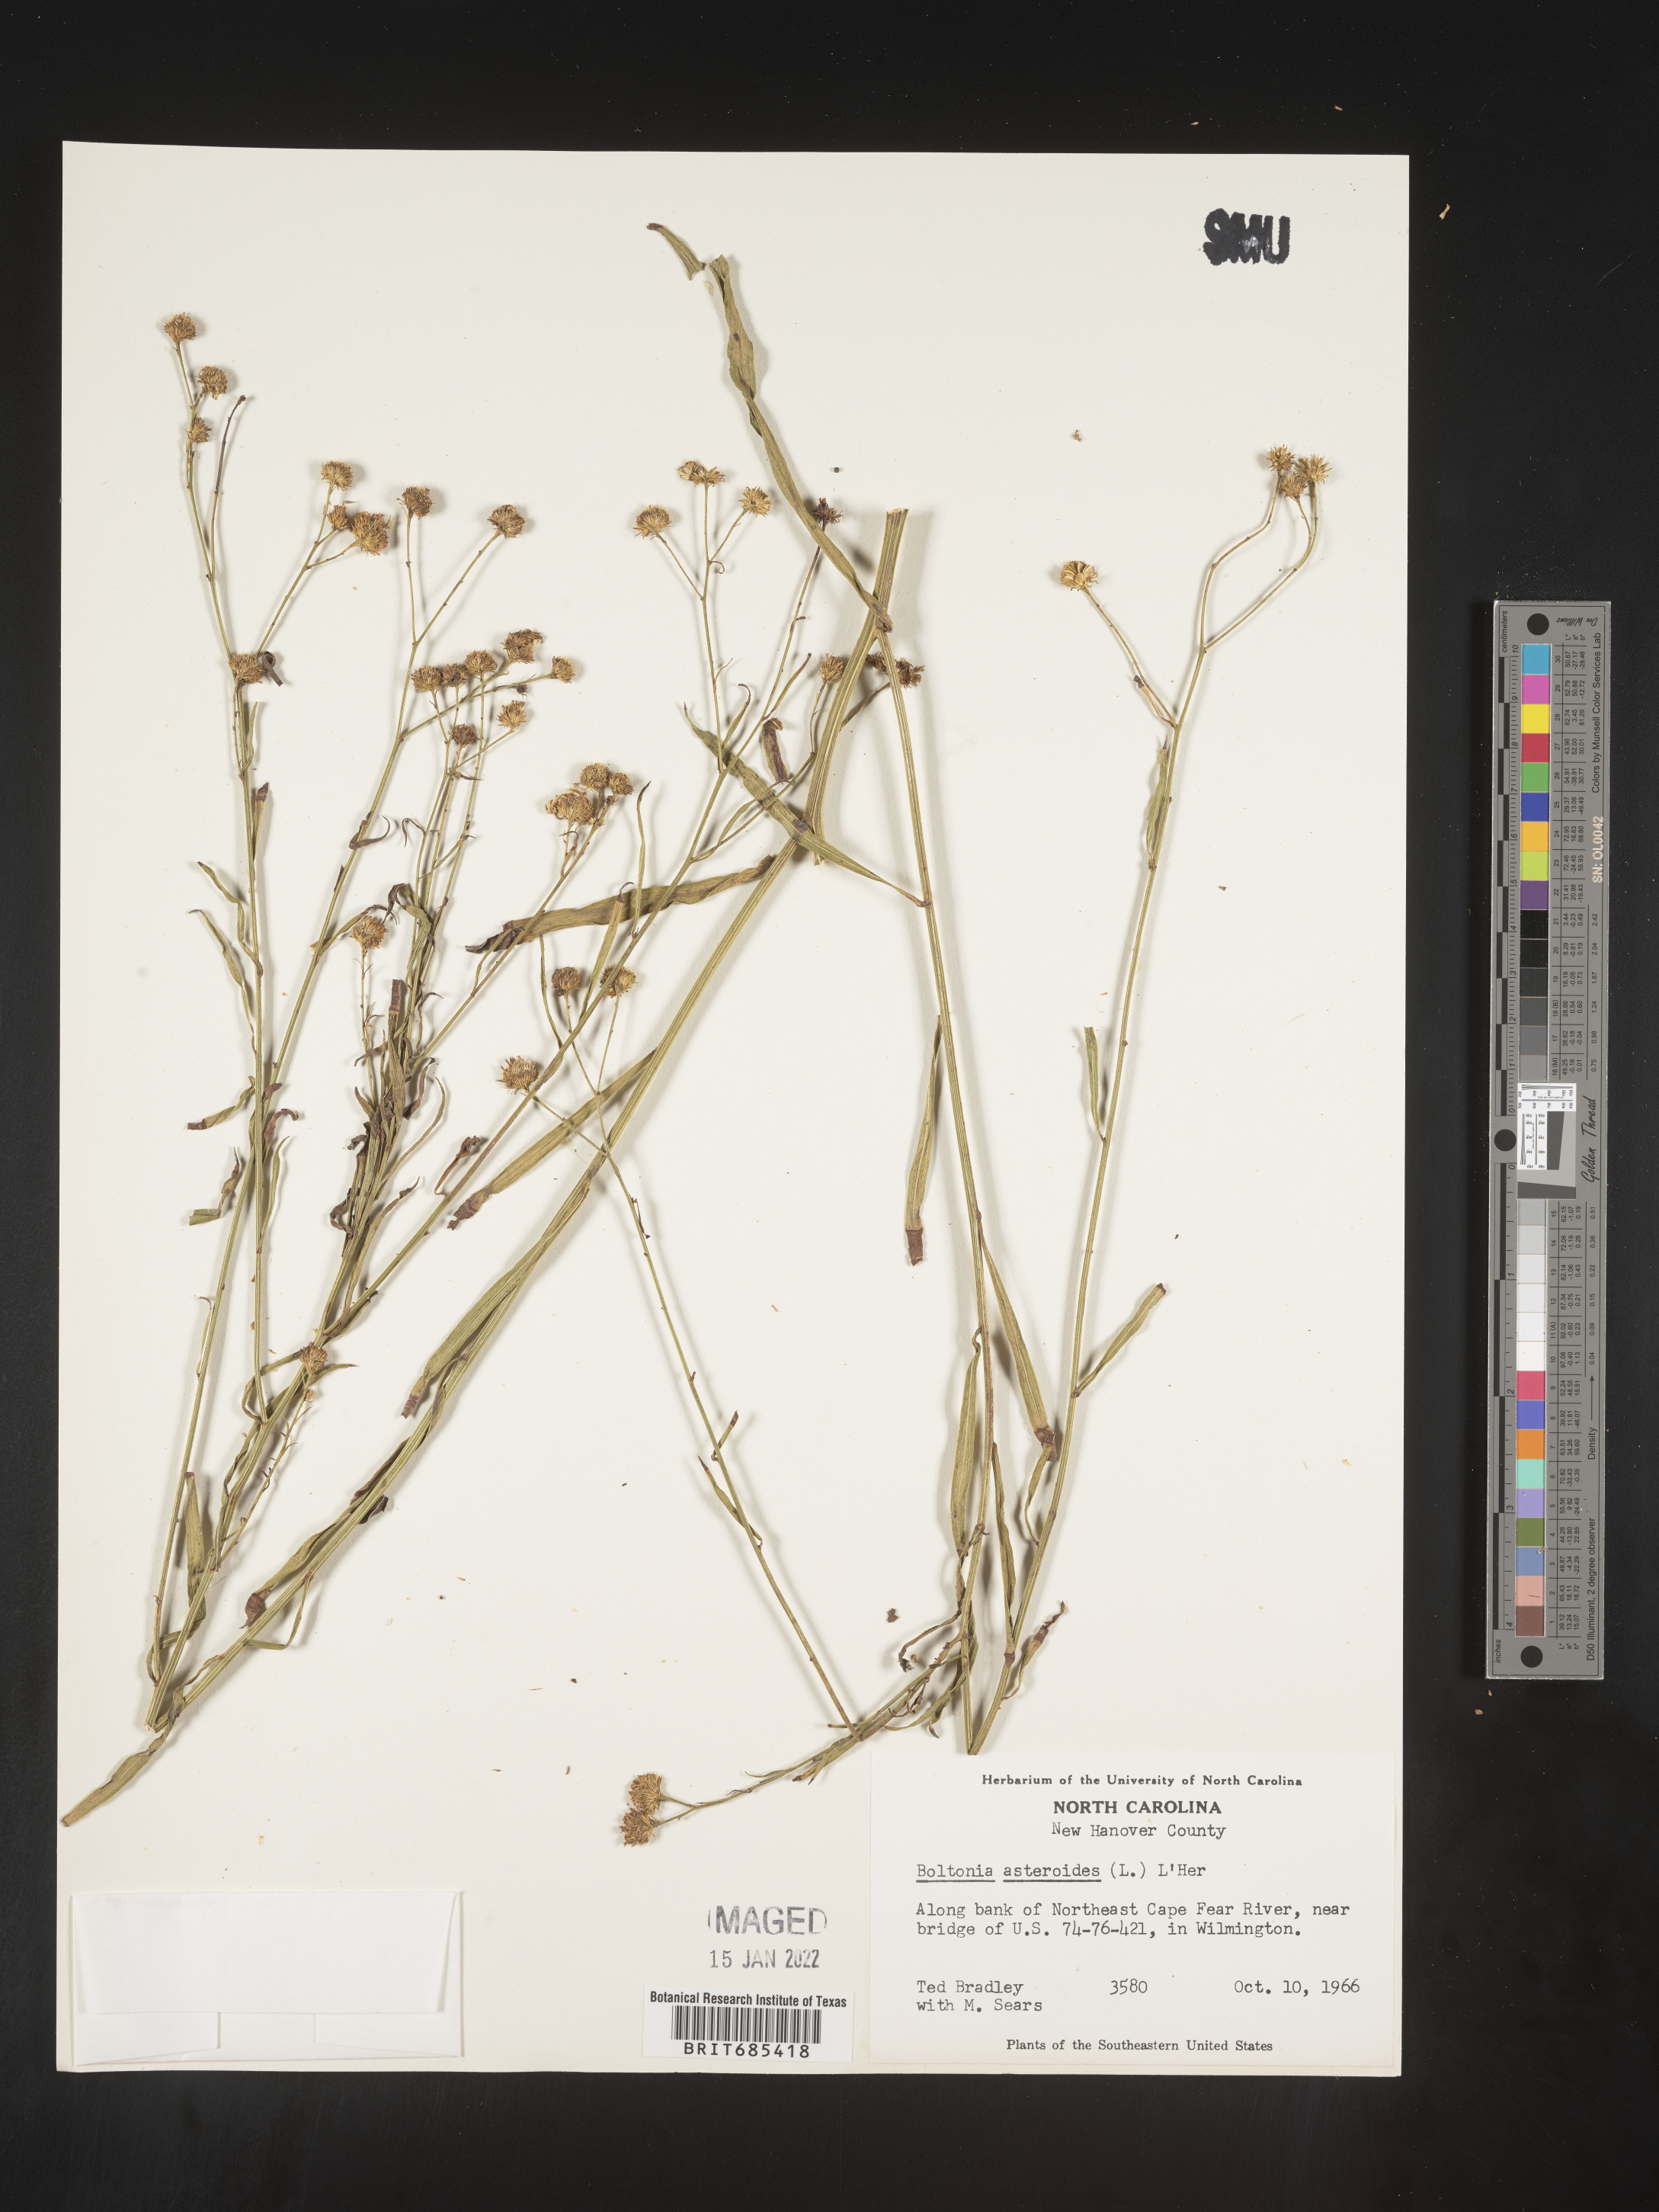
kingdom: Plantae
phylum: Tracheophyta
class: Magnoliopsida
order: Asterales
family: Asteraceae
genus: Boltonia
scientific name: Boltonia asteroides
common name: False chamomile
